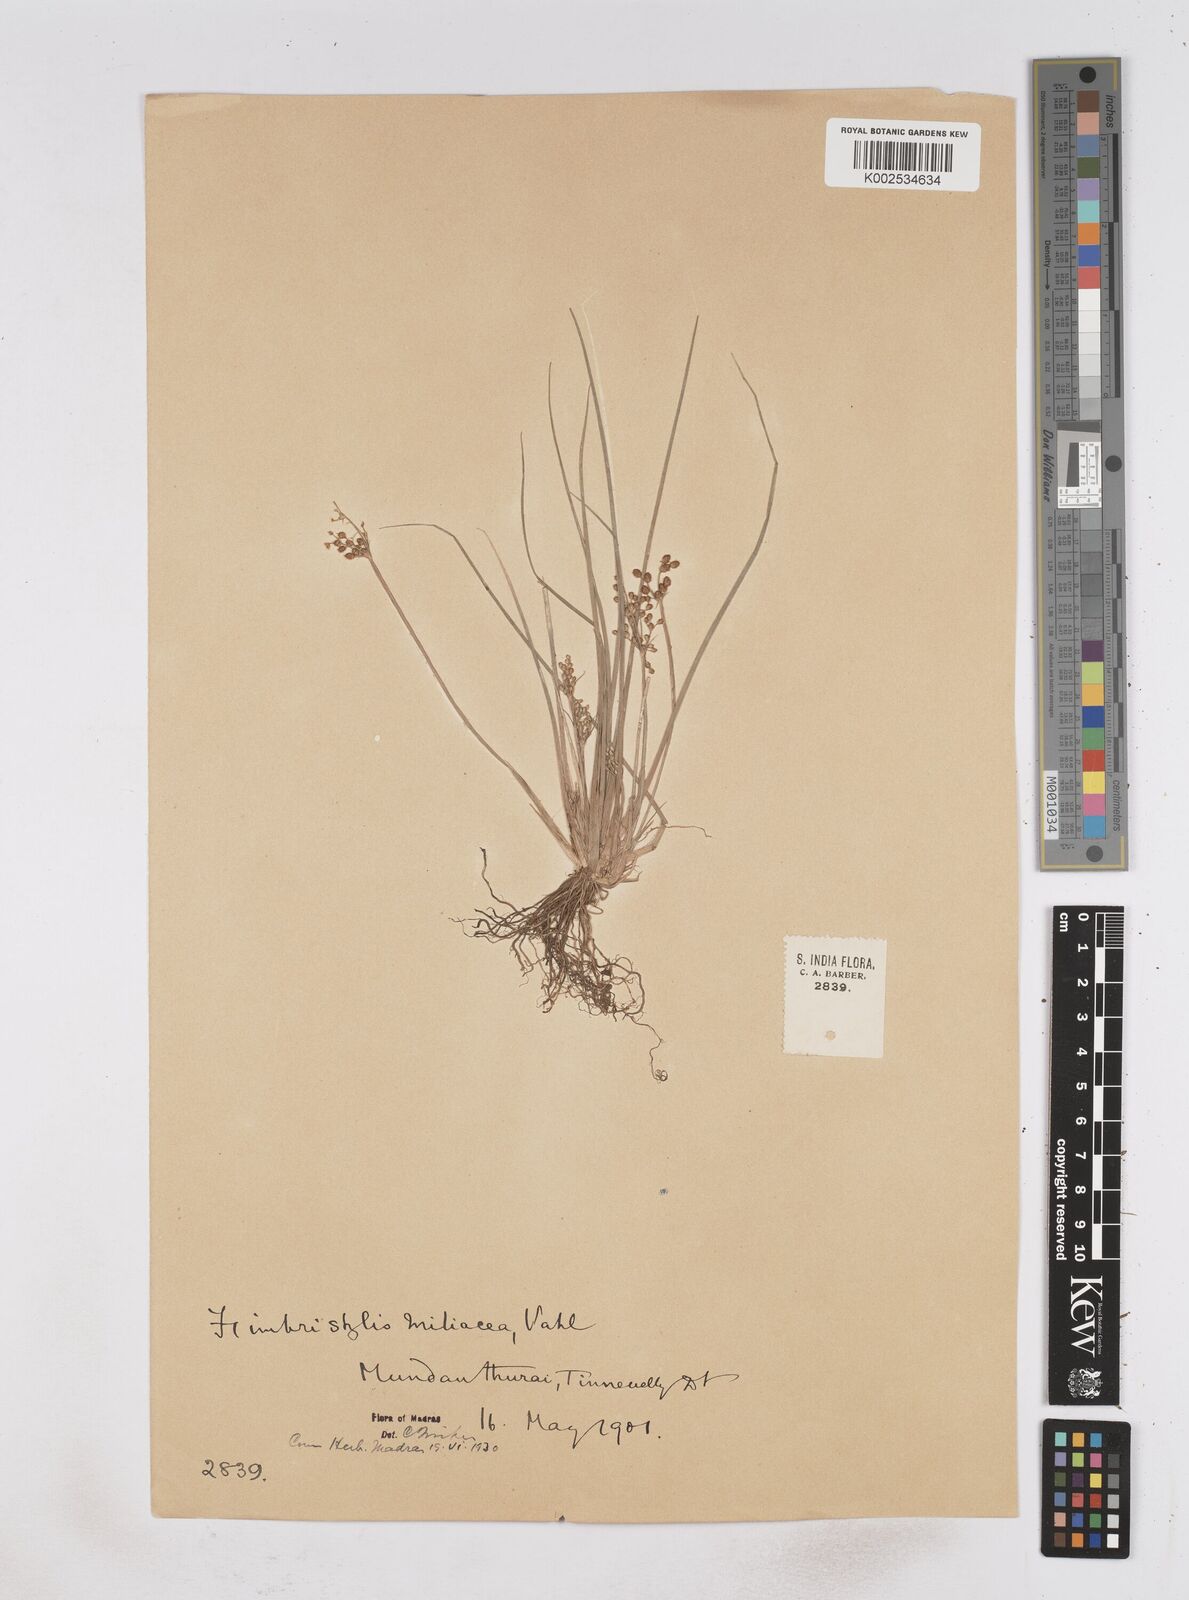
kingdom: Plantae
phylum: Tracheophyta
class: Liliopsida
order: Poales
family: Cyperaceae
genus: Fimbristylis
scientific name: Fimbristylis littoralis
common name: Fimbry
